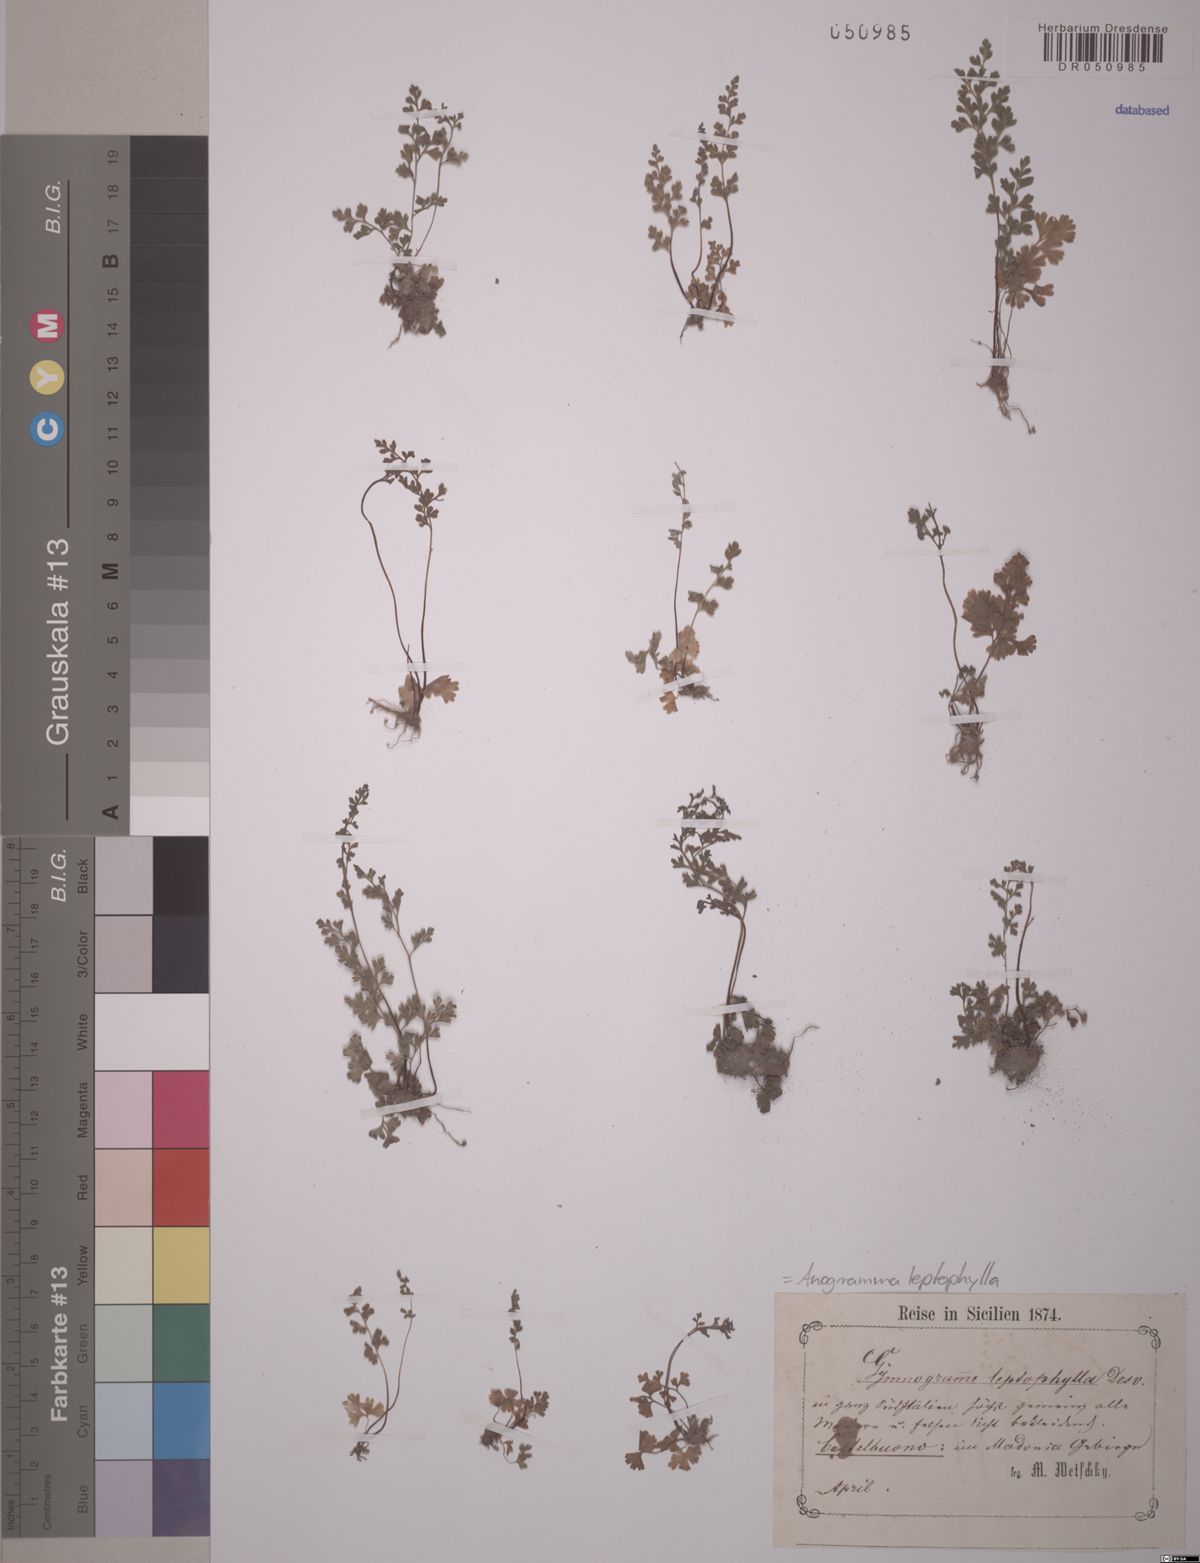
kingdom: Plantae
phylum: Tracheophyta
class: Polypodiopsida
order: Polypodiales
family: Pteridaceae
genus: Anogramma
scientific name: Anogramma leptophylla
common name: Jersey fern
